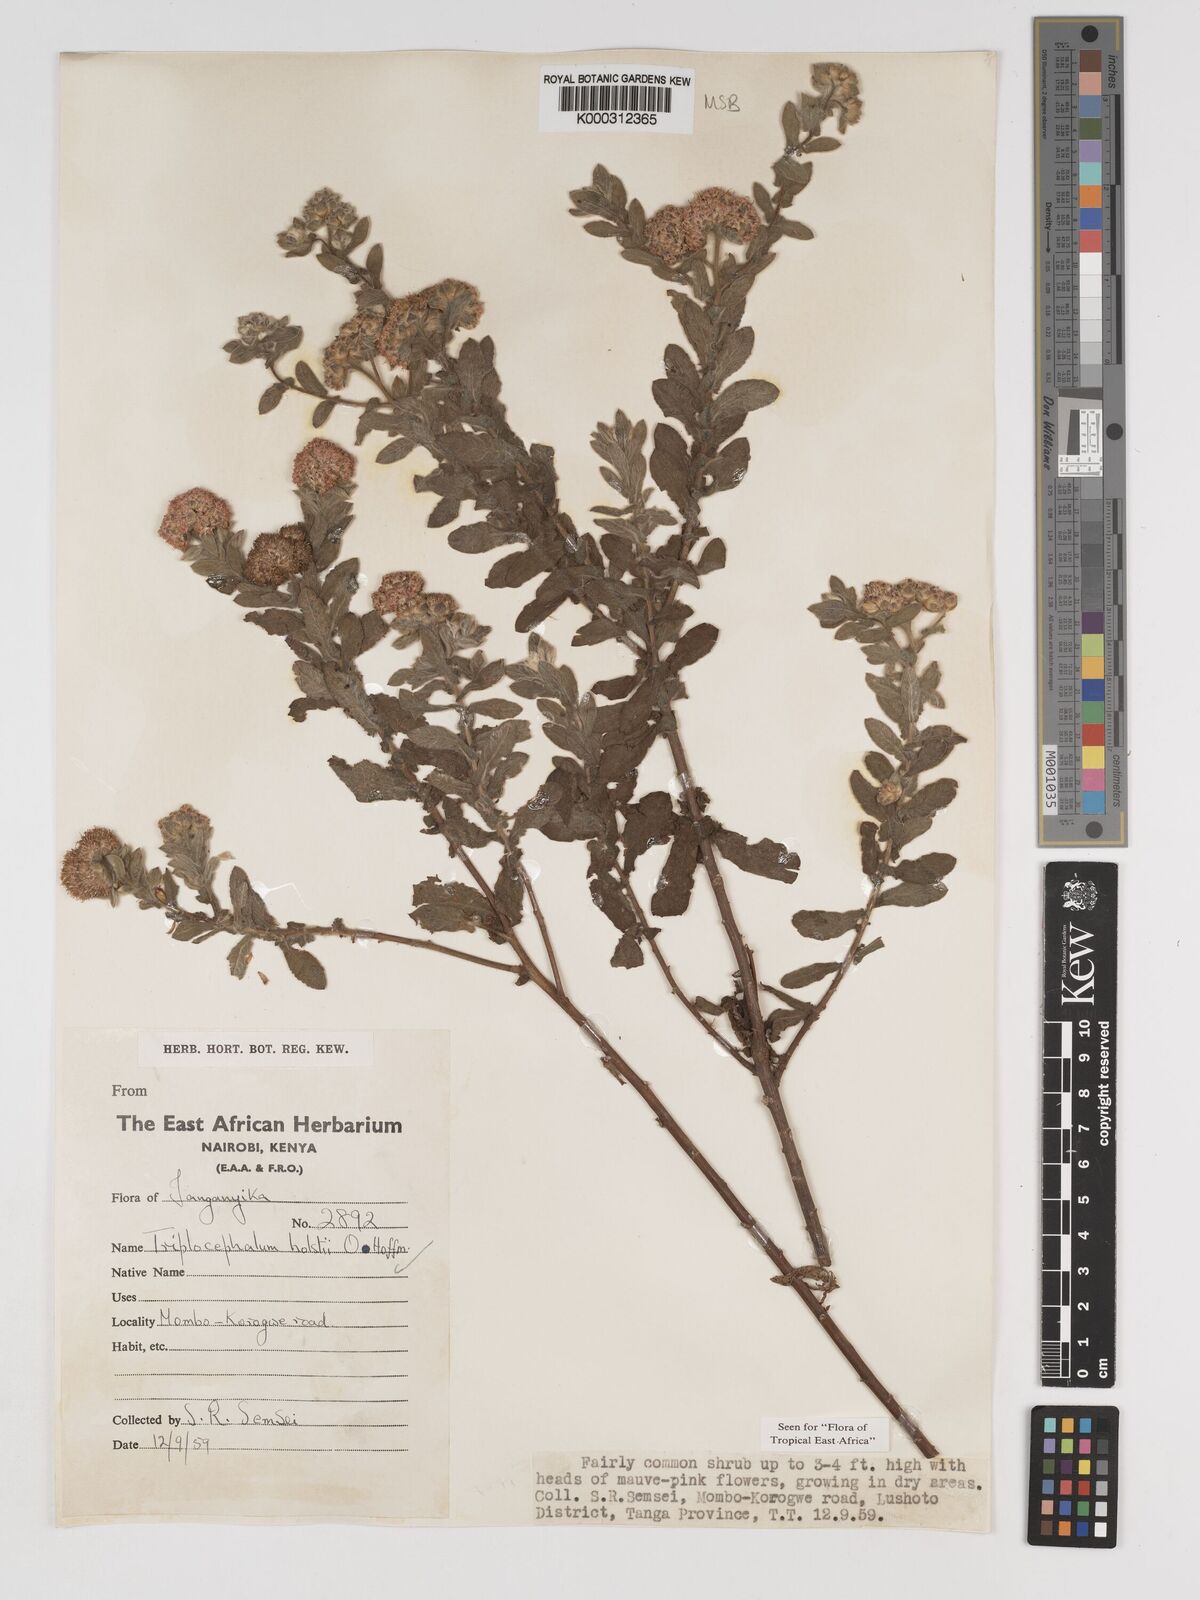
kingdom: Plantae
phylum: Tracheophyta
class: Magnoliopsida
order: Asterales
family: Asteraceae
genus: Triplocephalum
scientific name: Triplocephalum holstii
